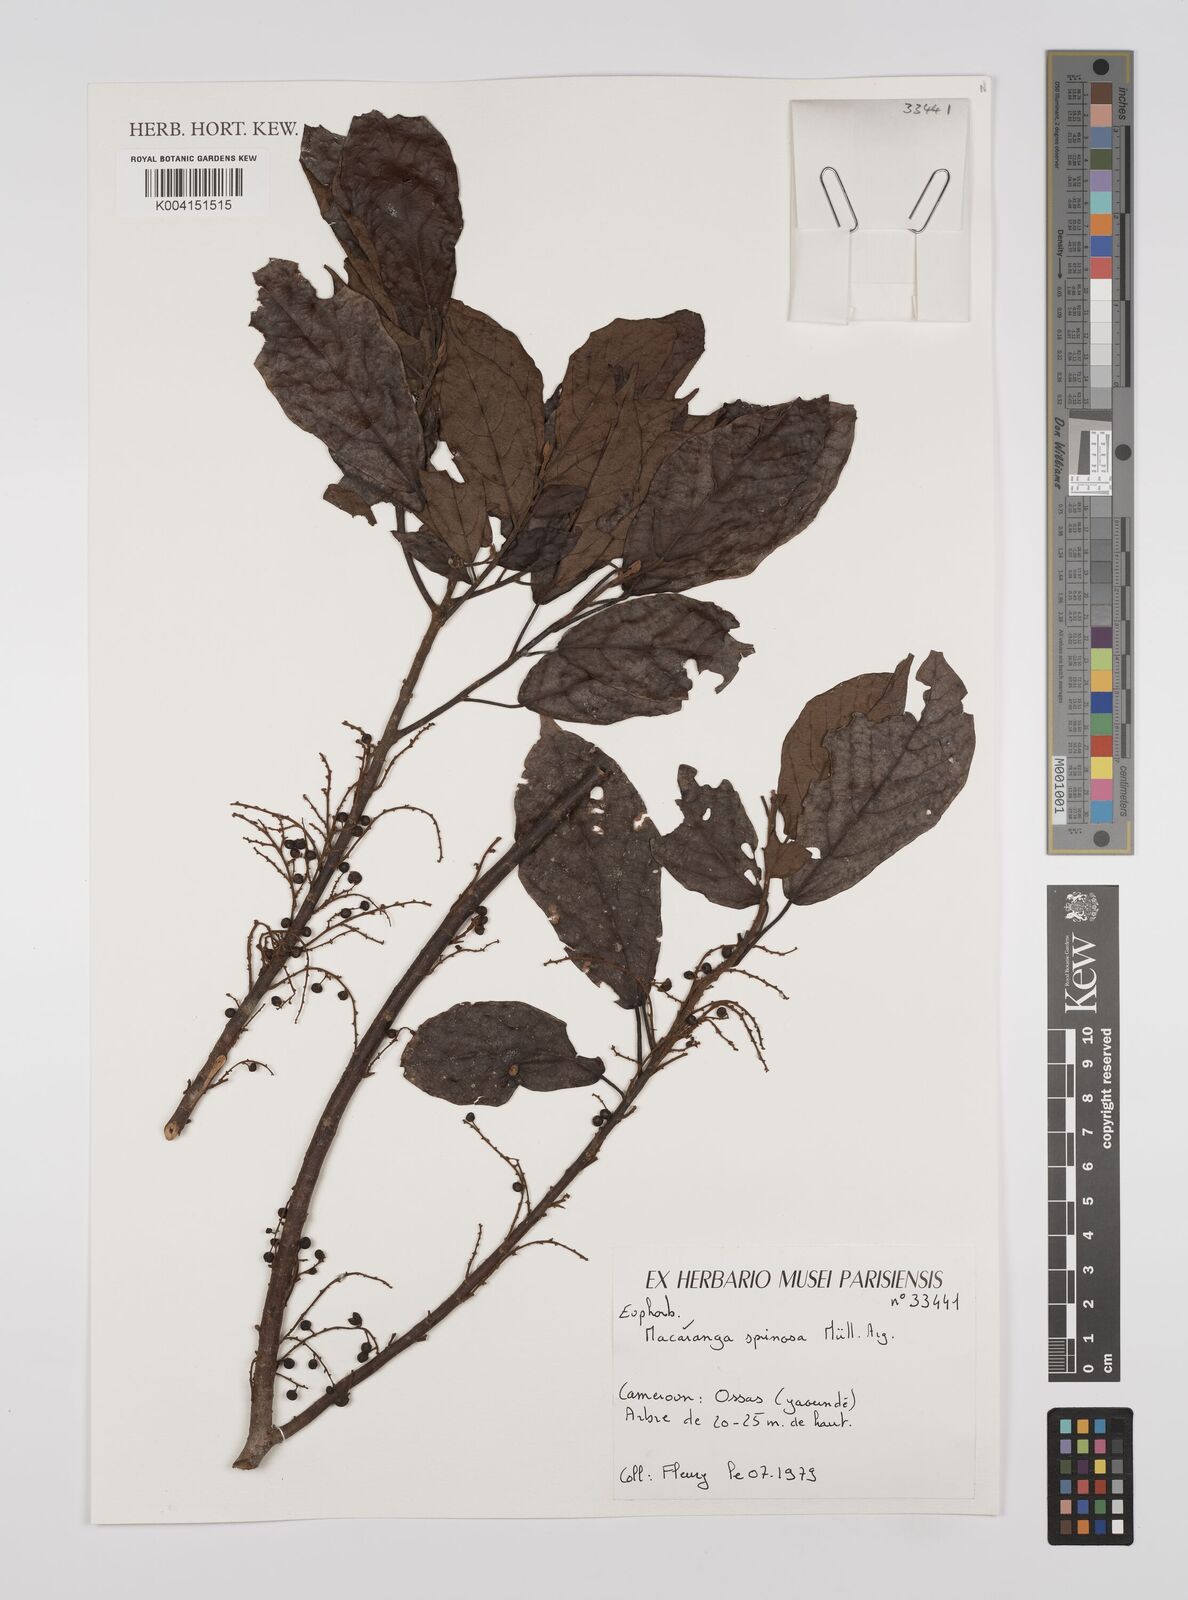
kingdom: Plantae
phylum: Tracheophyta
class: Magnoliopsida
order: Malpighiales
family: Euphorbiaceae
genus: Macaranga
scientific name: Macaranga spinosa
